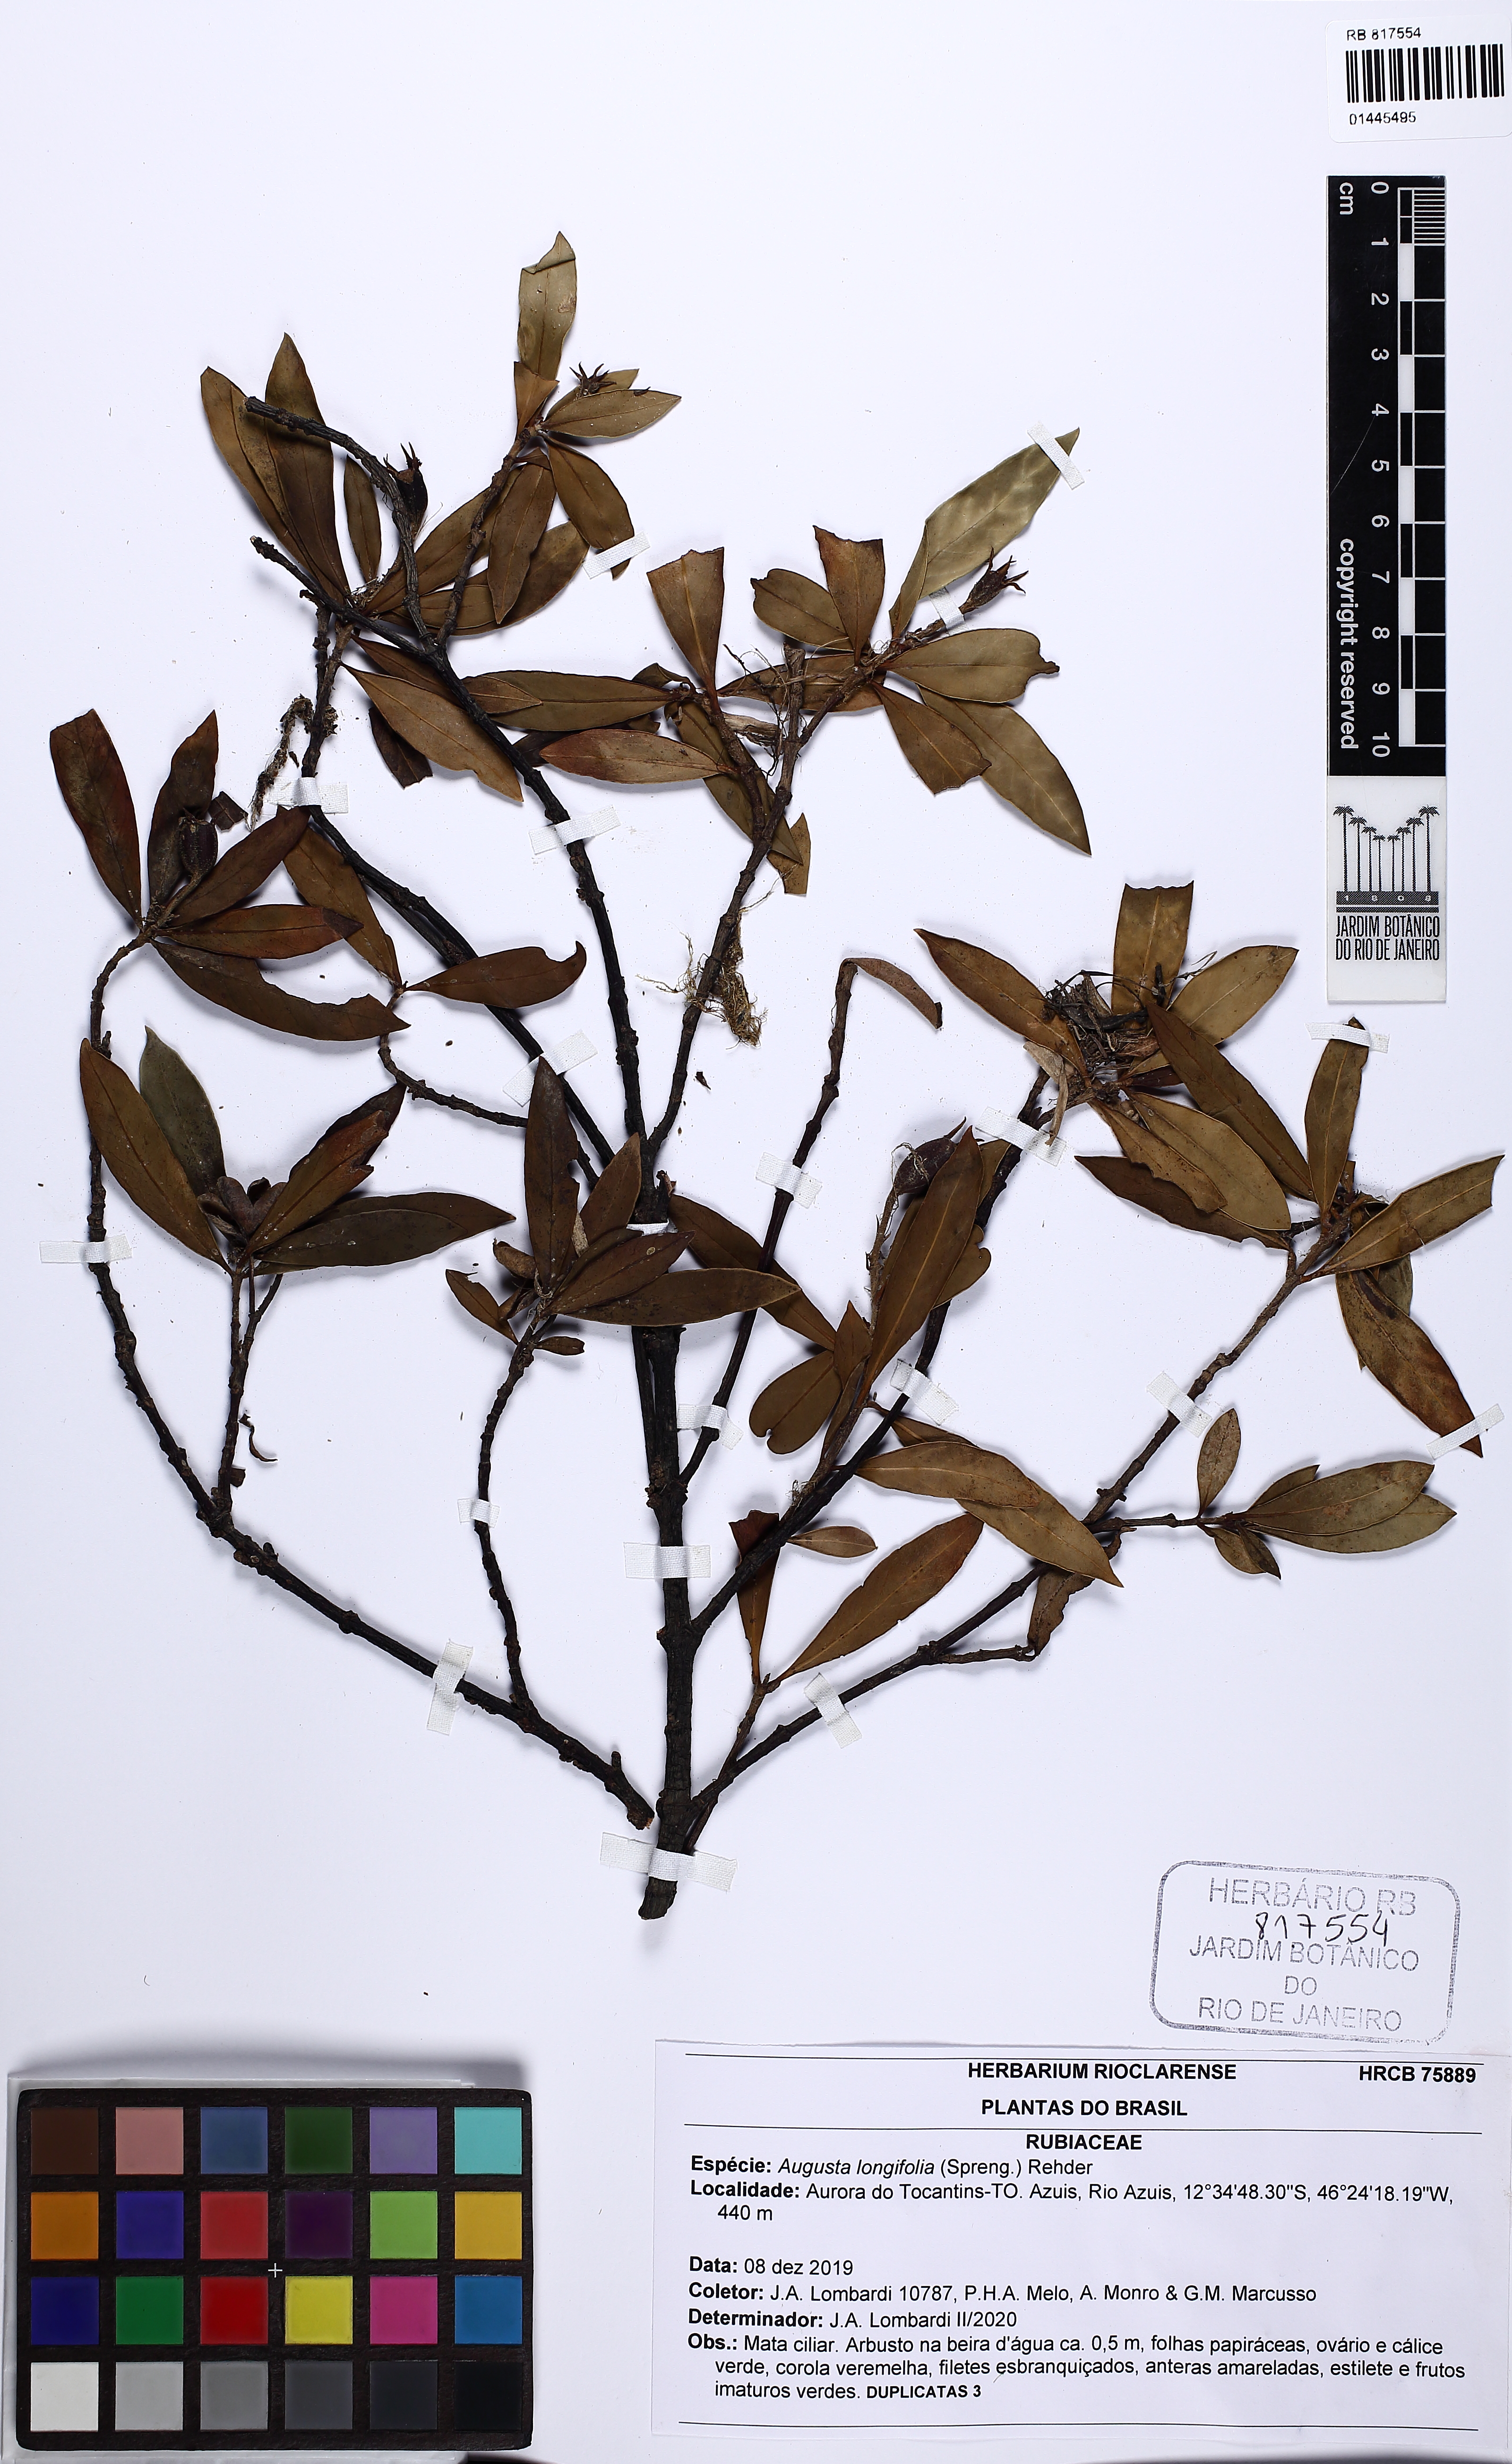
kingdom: Plantae
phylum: Tracheophyta
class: Magnoliopsida
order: Gentianales
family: Rubiaceae
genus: Augusta
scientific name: Augusta longifolia
